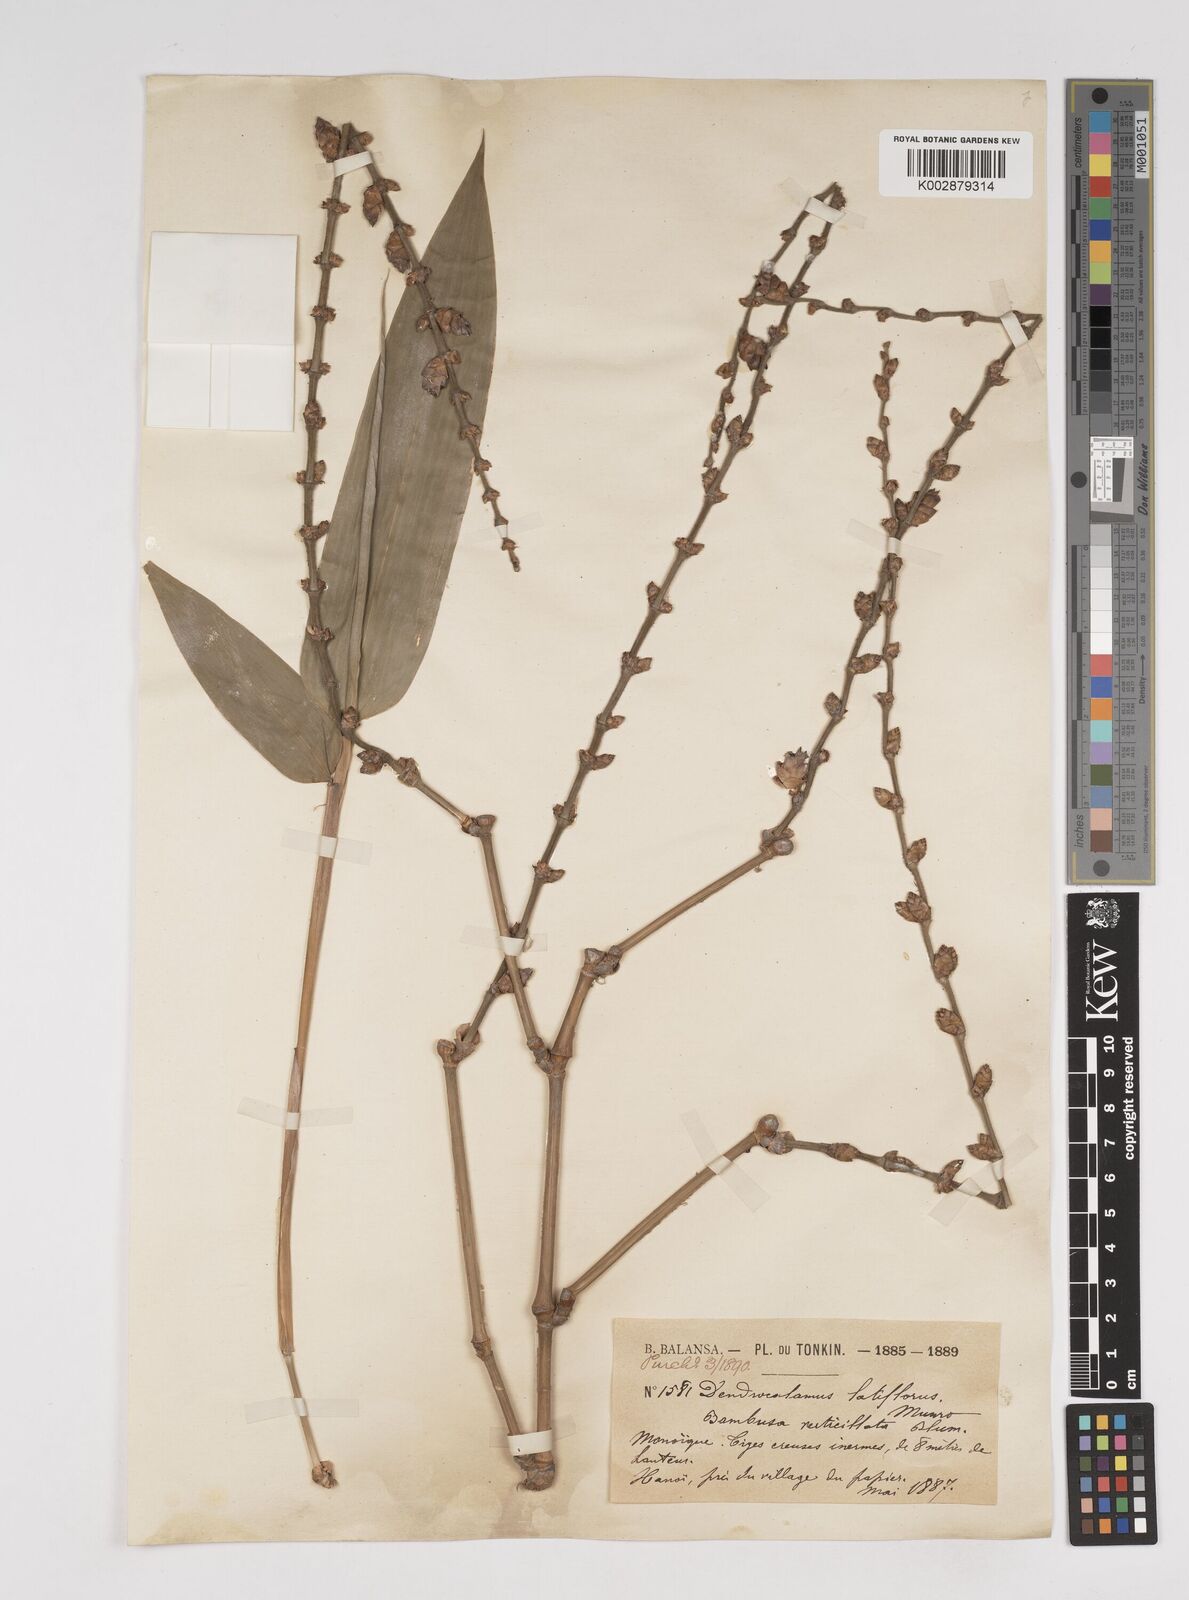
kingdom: Plantae
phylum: Tracheophyta
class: Liliopsida
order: Poales
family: Poaceae
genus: Dendrocalamus
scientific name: Dendrocalamus latiflorus
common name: Giant bamboo
